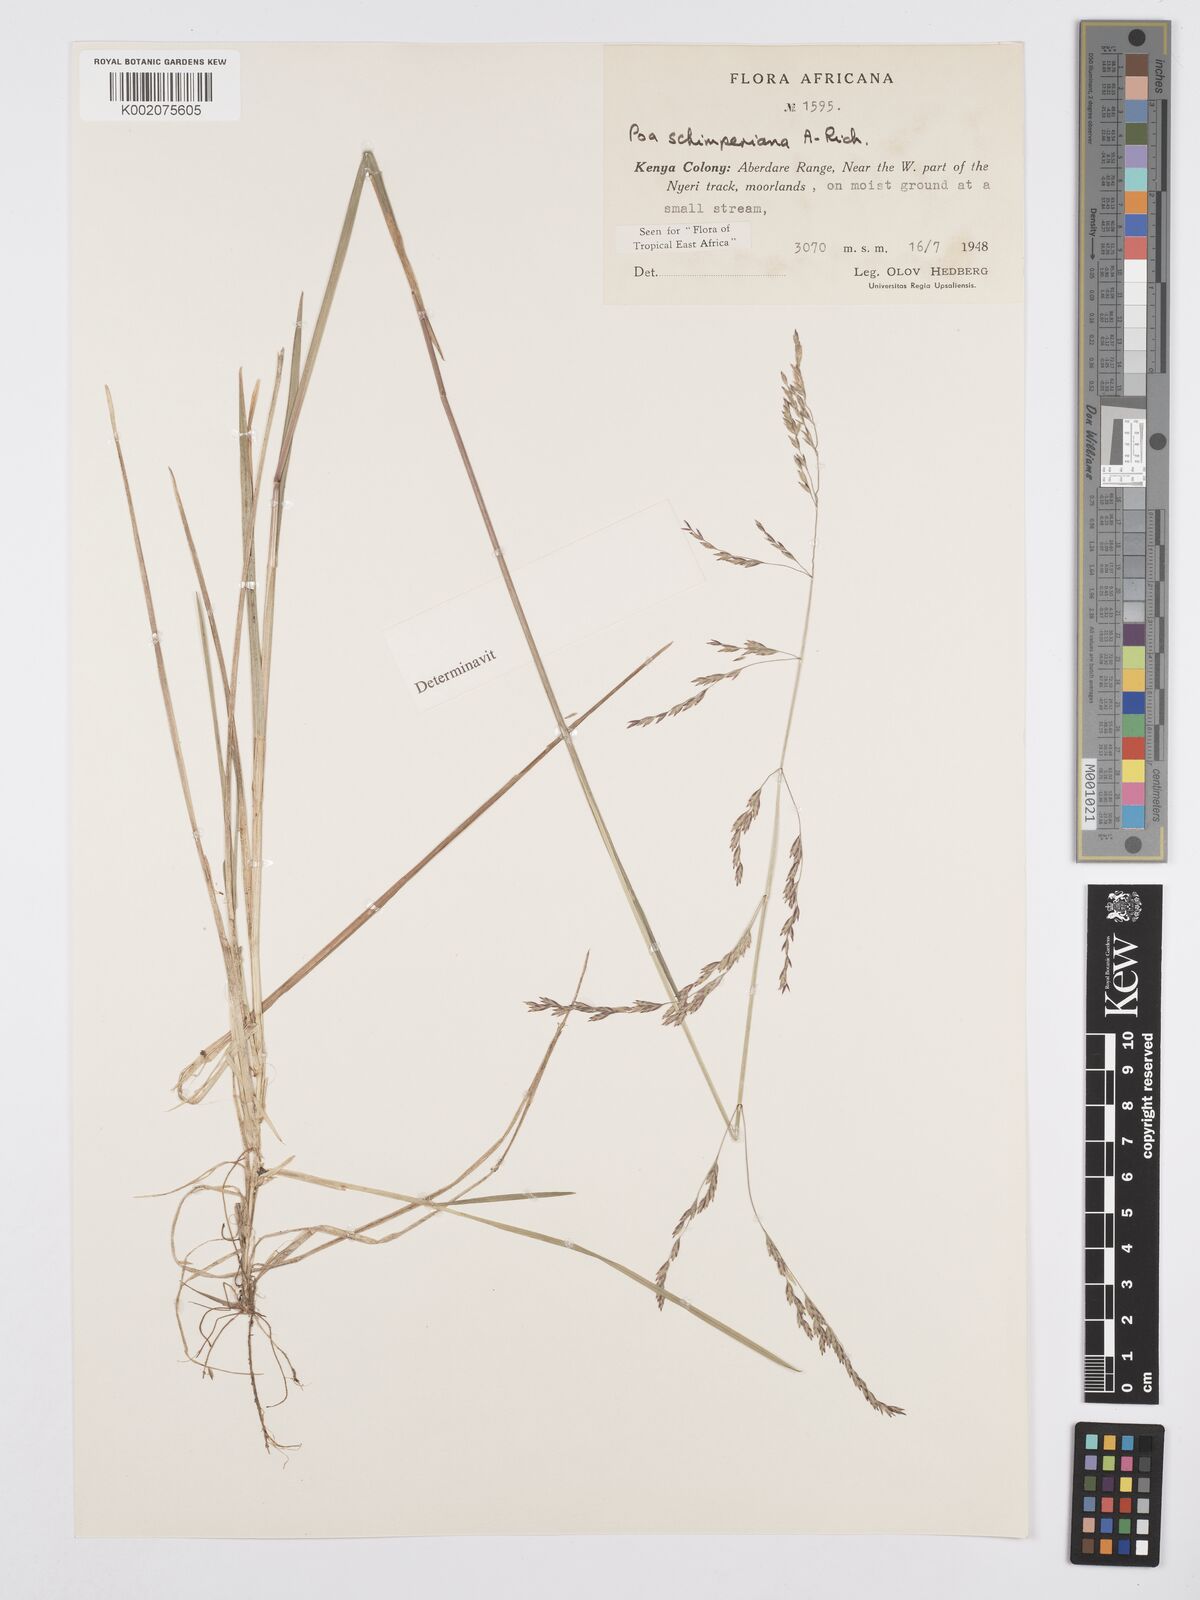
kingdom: Plantae
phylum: Tracheophyta
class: Liliopsida
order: Poales
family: Poaceae
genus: Poa
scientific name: Poa schimperiana
